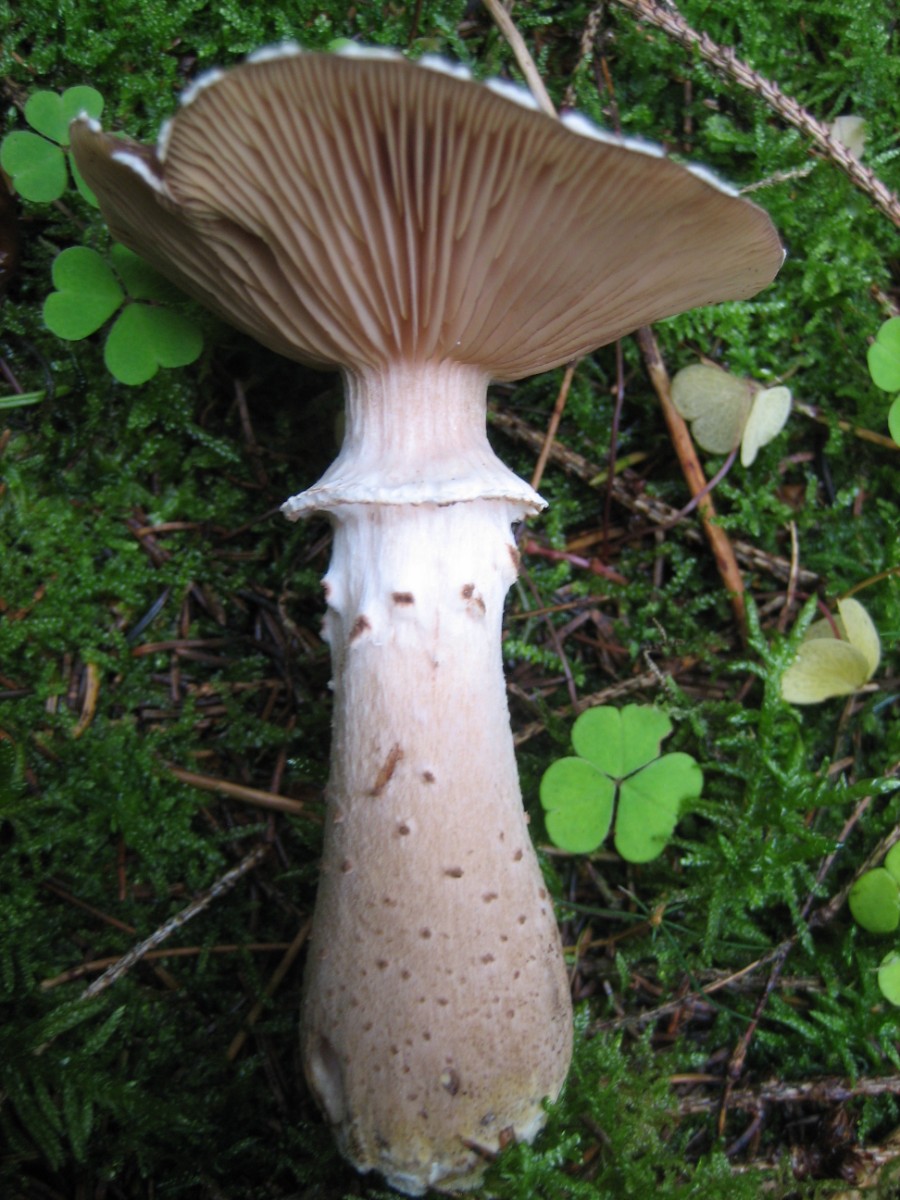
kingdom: Fungi
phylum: Basidiomycota
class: Agaricomycetes
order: Agaricales
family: Physalacriaceae
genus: Armillaria
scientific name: Armillaria lutea
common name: køllestokket honningsvamp
